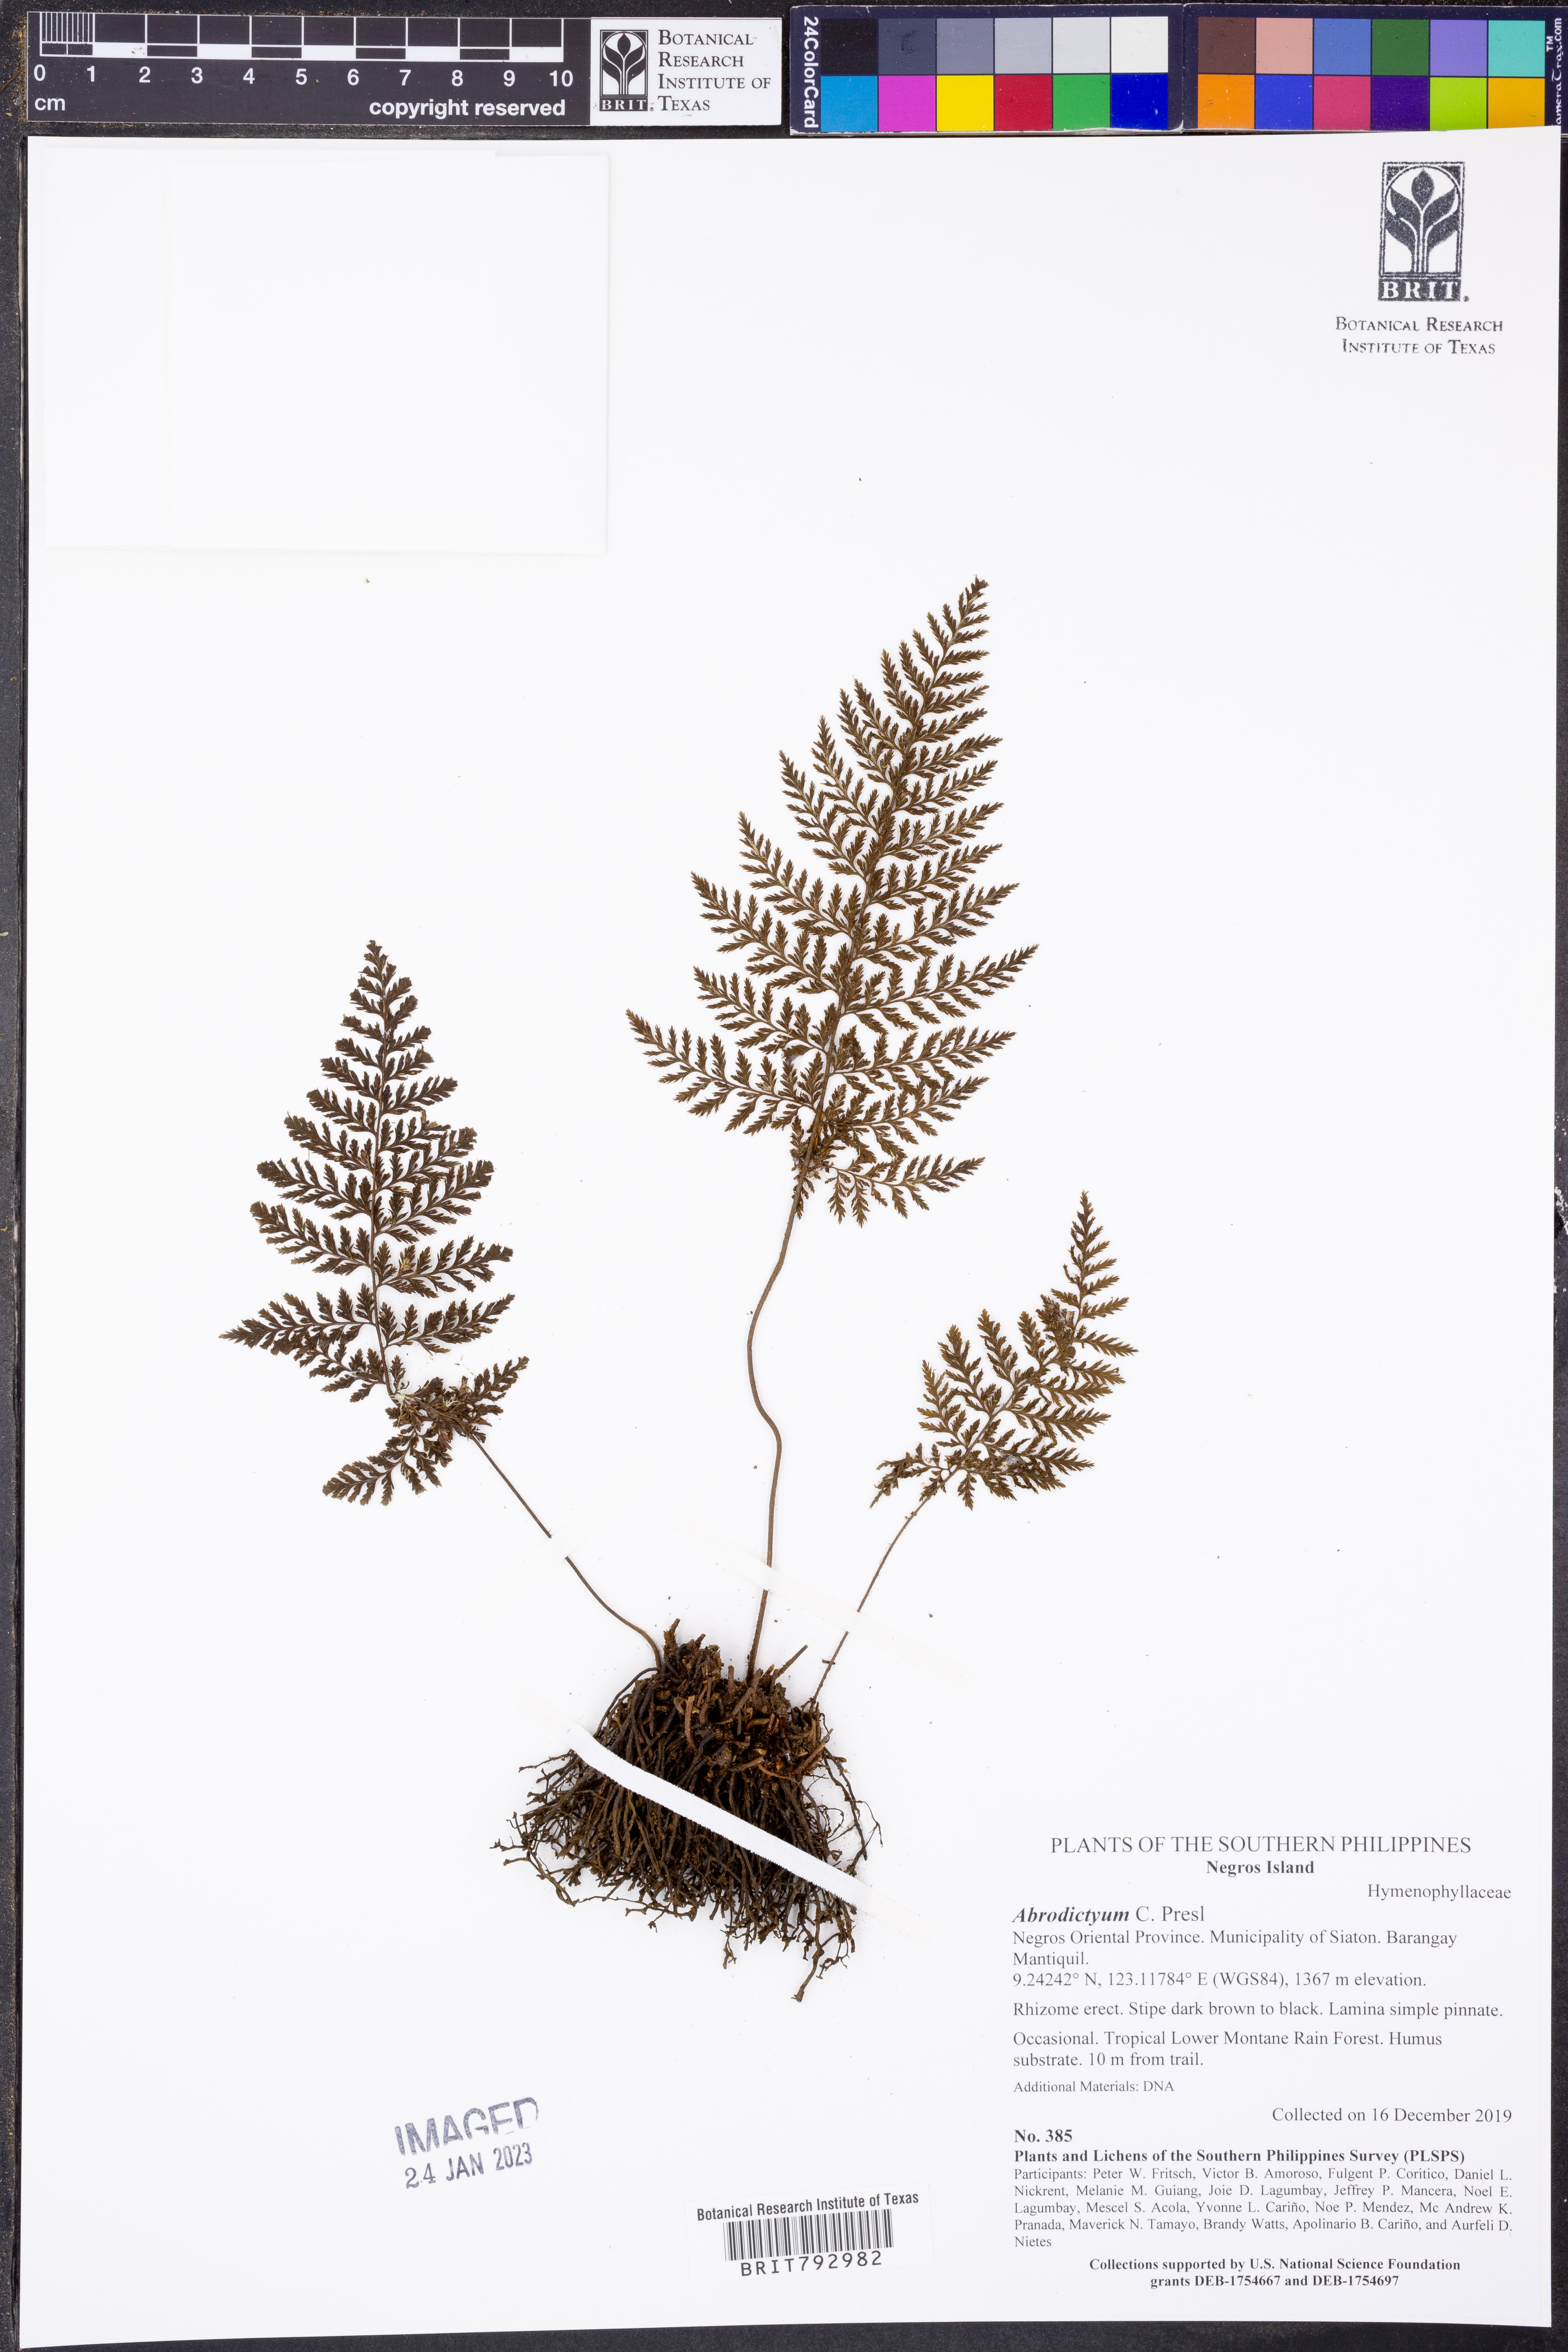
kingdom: Plantae
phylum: Tracheophyta
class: Polypodiopsida
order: Hymenophyllales
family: Hymenophyllaceae
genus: Abrodictyum
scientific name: Abrodictyum
